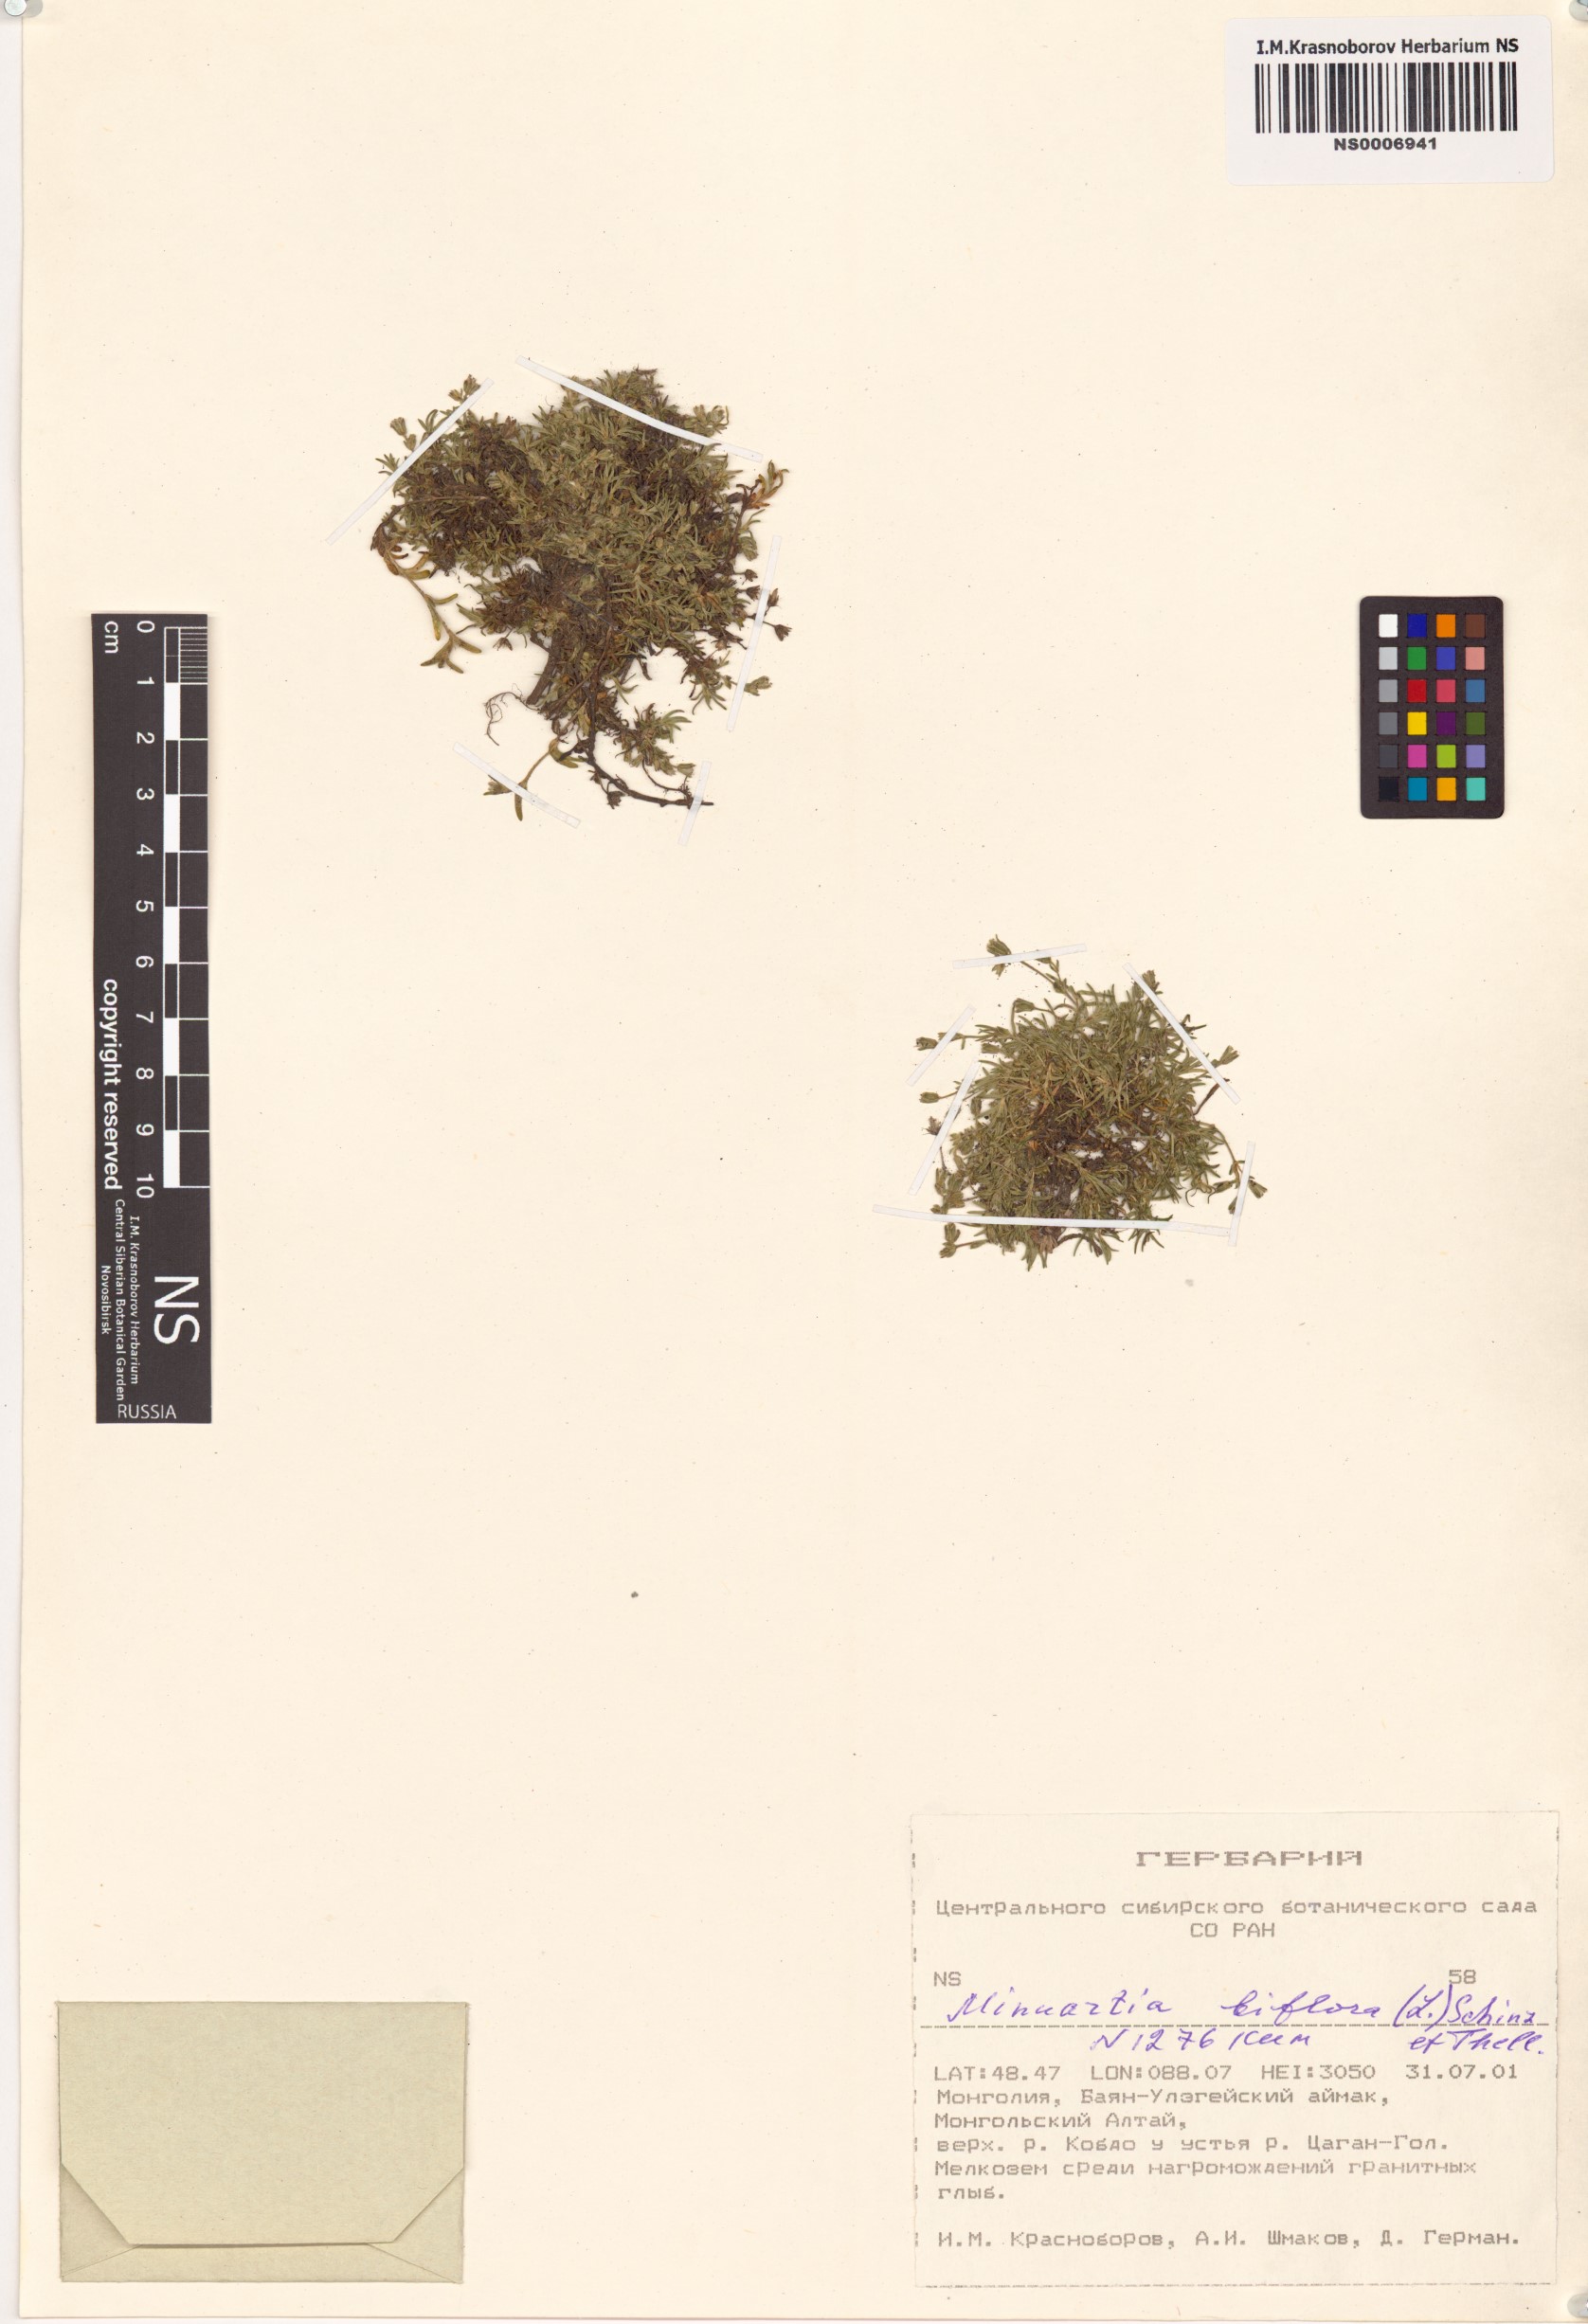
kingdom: Plantae
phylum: Tracheophyta
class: Magnoliopsida
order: Caryophyllales
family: Caryophyllaceae
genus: Cherleria
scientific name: Cherleria biflora
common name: Mountain sandwort
